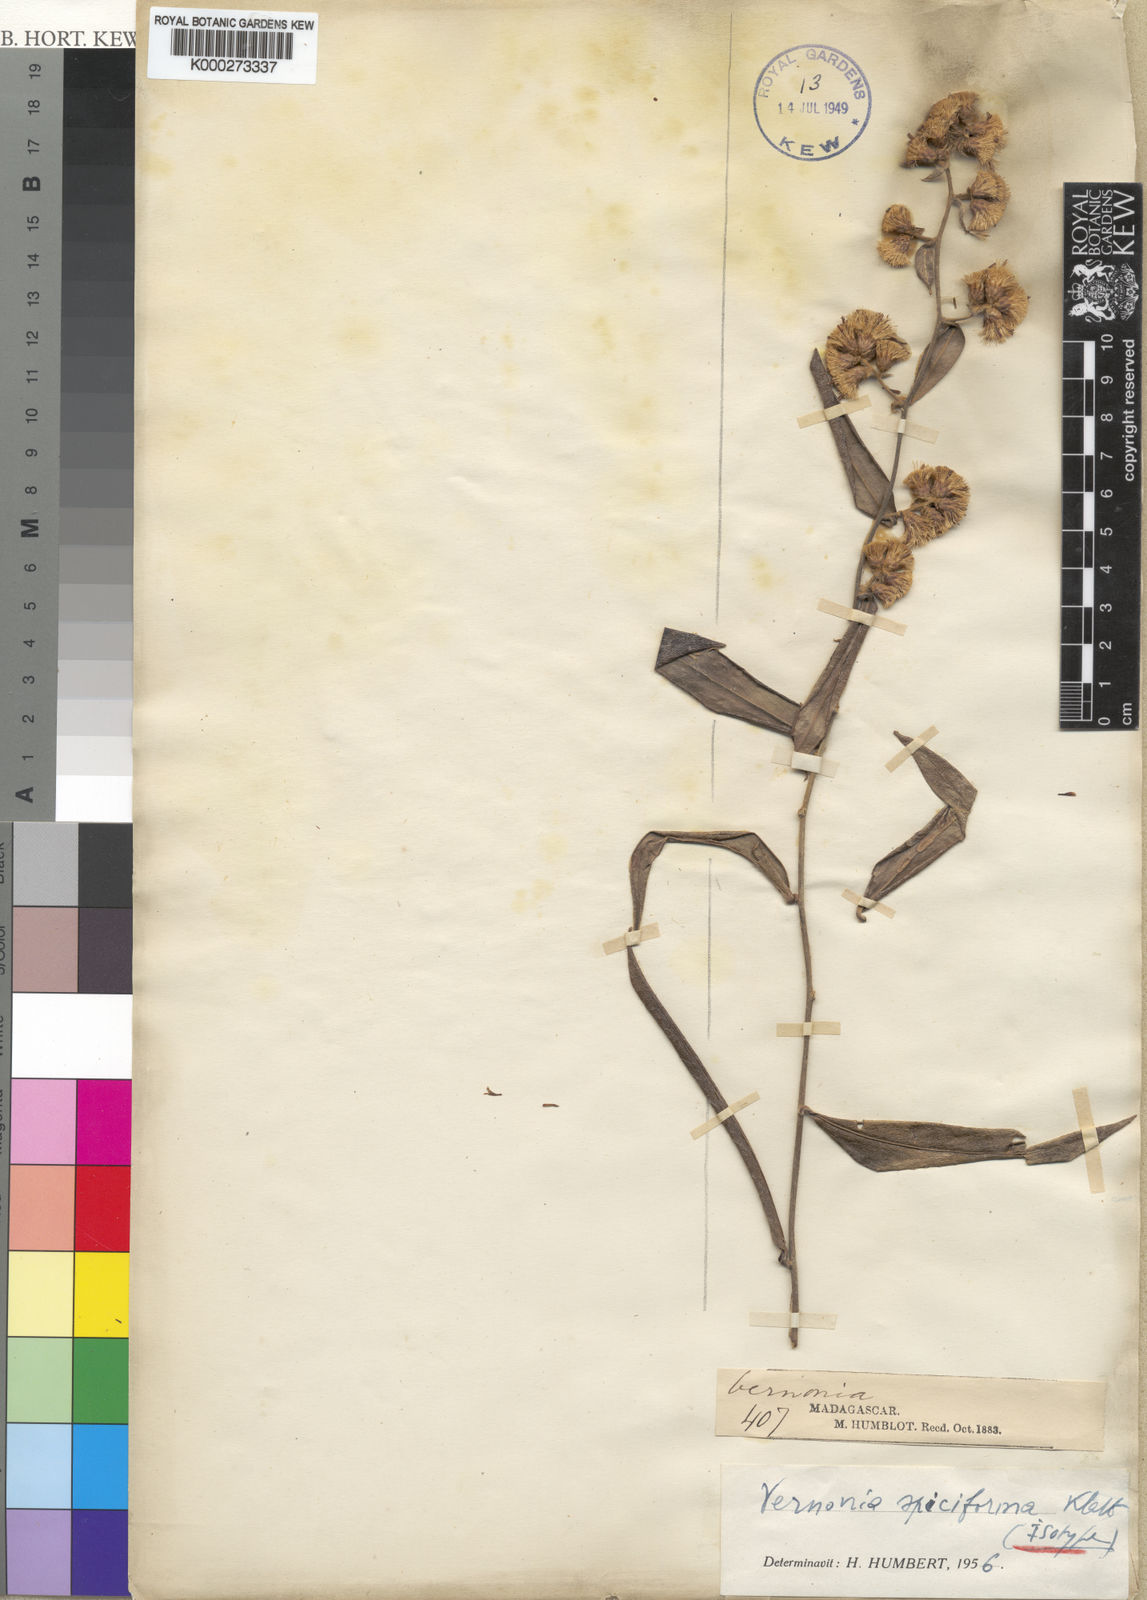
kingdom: Plantae
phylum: Tracheophyta
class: Magnoliopsida
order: Asterales
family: Asteraceae
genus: Distephanus
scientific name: Distephanus
